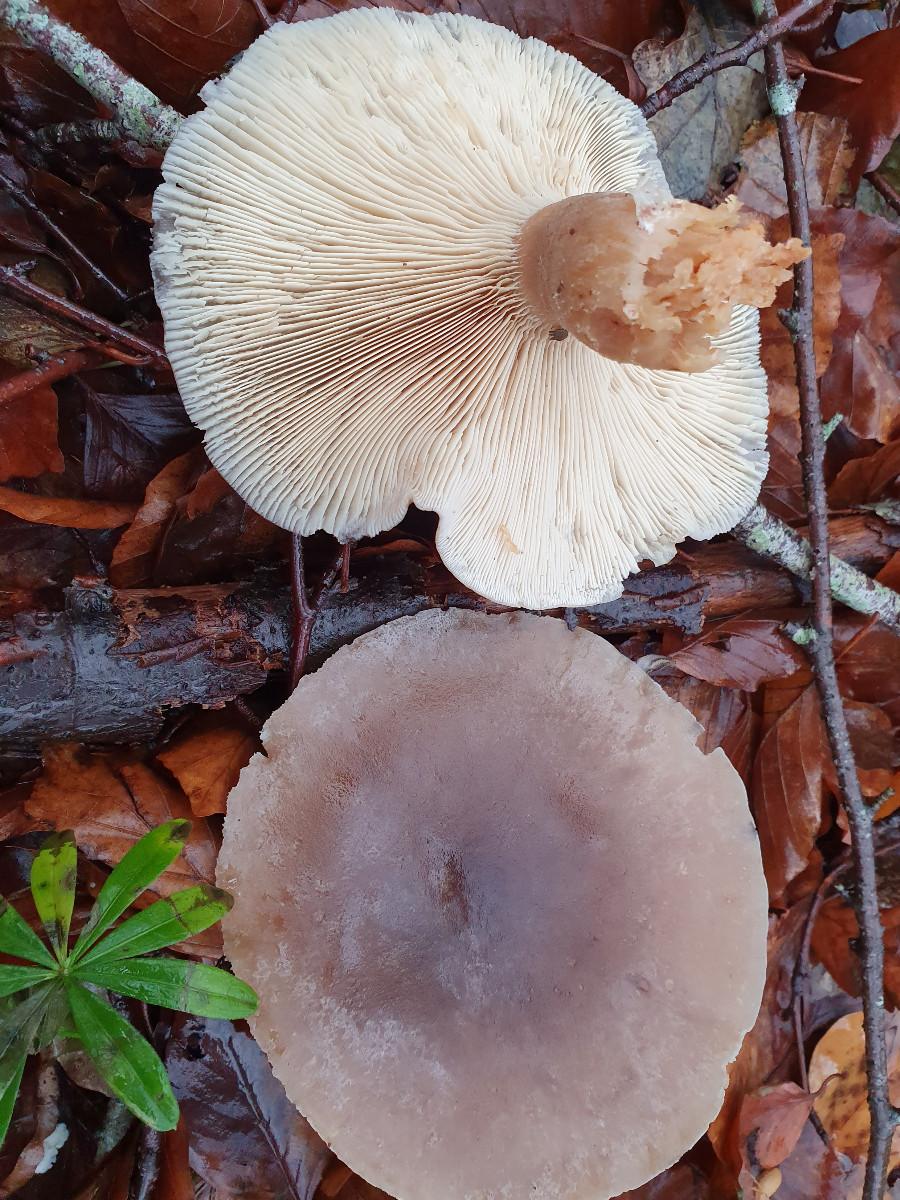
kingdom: Fungi
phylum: Basidiomycota
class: Agaricomycetes
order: Agaricales
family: Tricholomataceae
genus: Clitocybe
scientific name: Clitocybe nebularis
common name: tåge-tragthat
